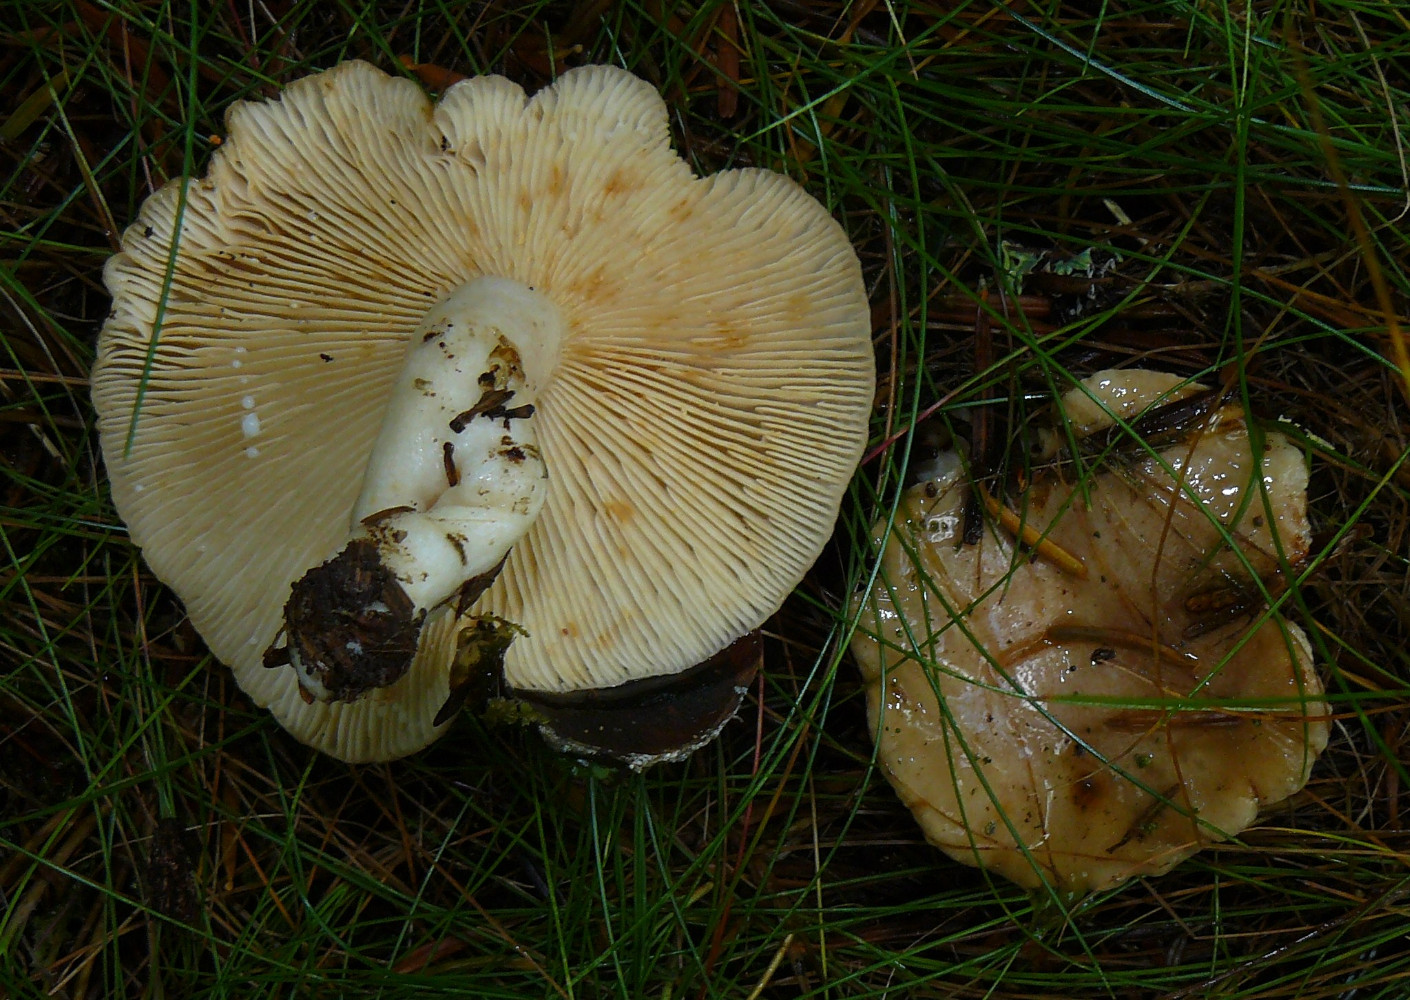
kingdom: Fungi
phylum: Basidiomycota
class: Agaricomycetes
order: Russulales
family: Russulaceae
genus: Lactarius
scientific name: Lactarius albocarneus
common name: ædelgran-mælkehat
